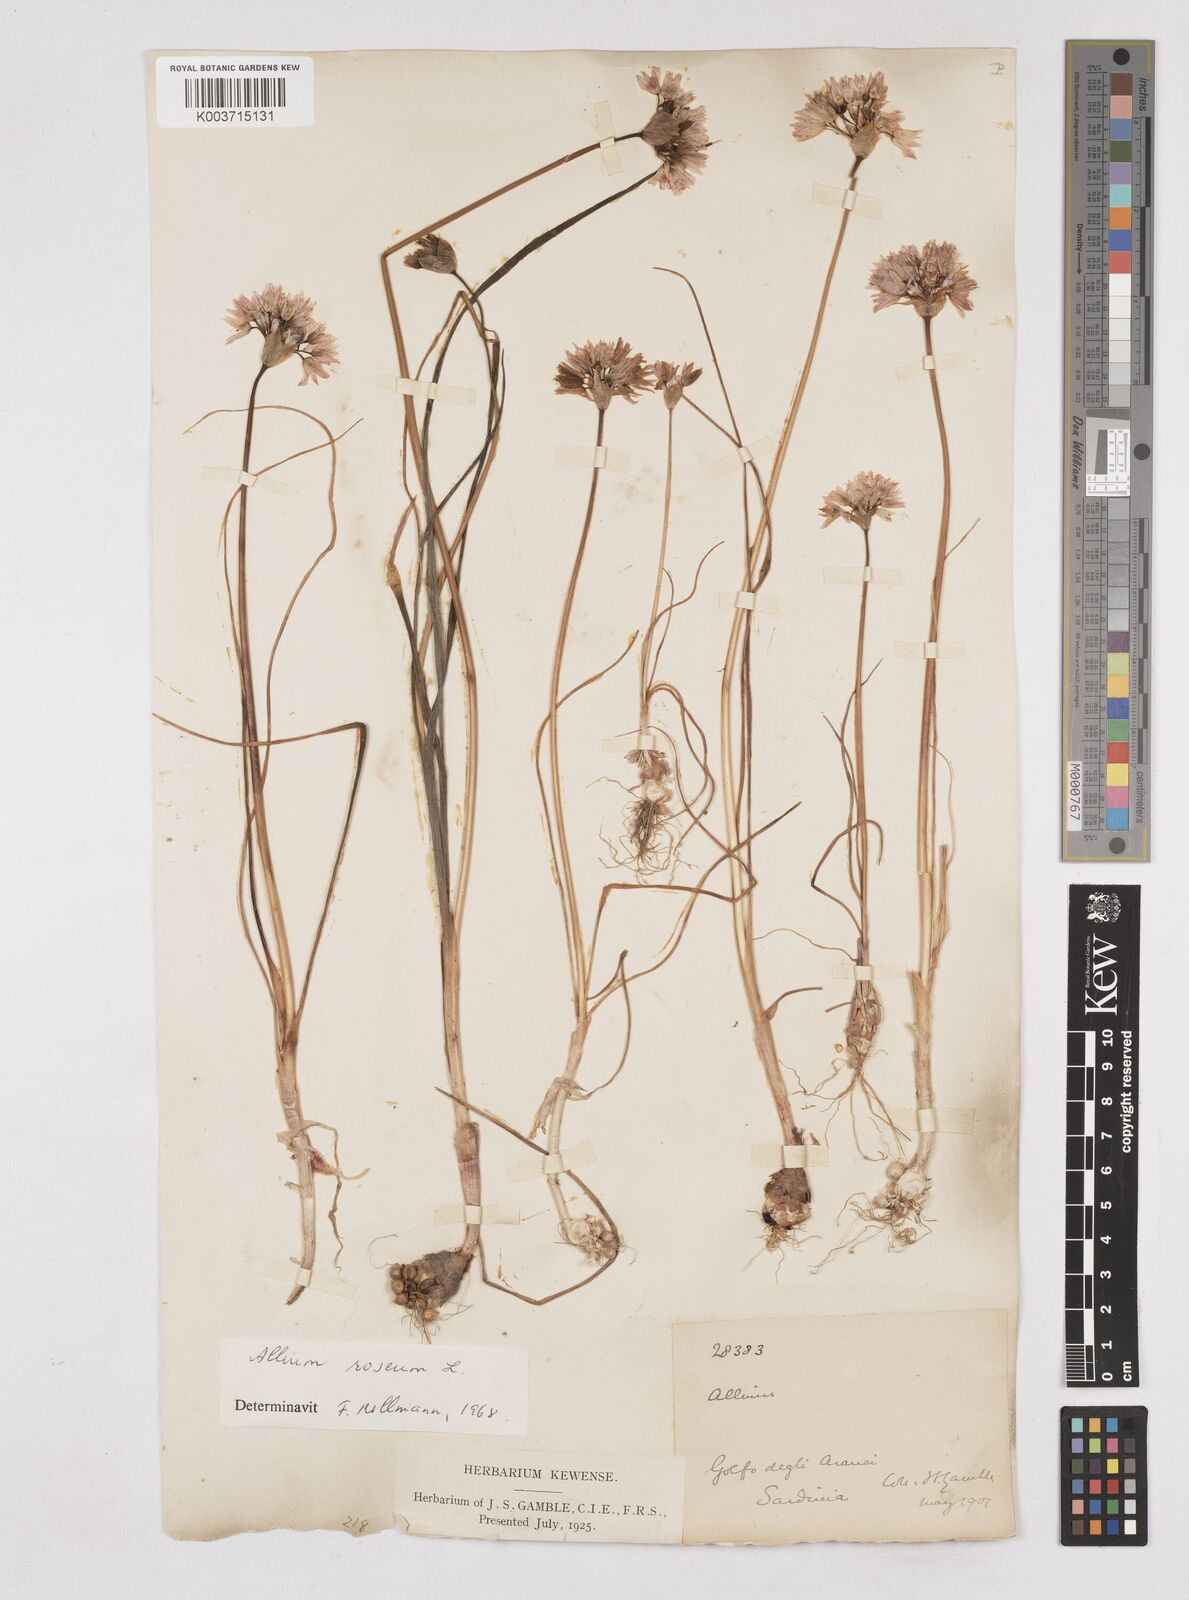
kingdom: Plantae
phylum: Tracheophyta
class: Liliopsida
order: Asparagales
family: Amaryllidaceae
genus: Allium
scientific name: Allium roseum
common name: Rosy garlic
